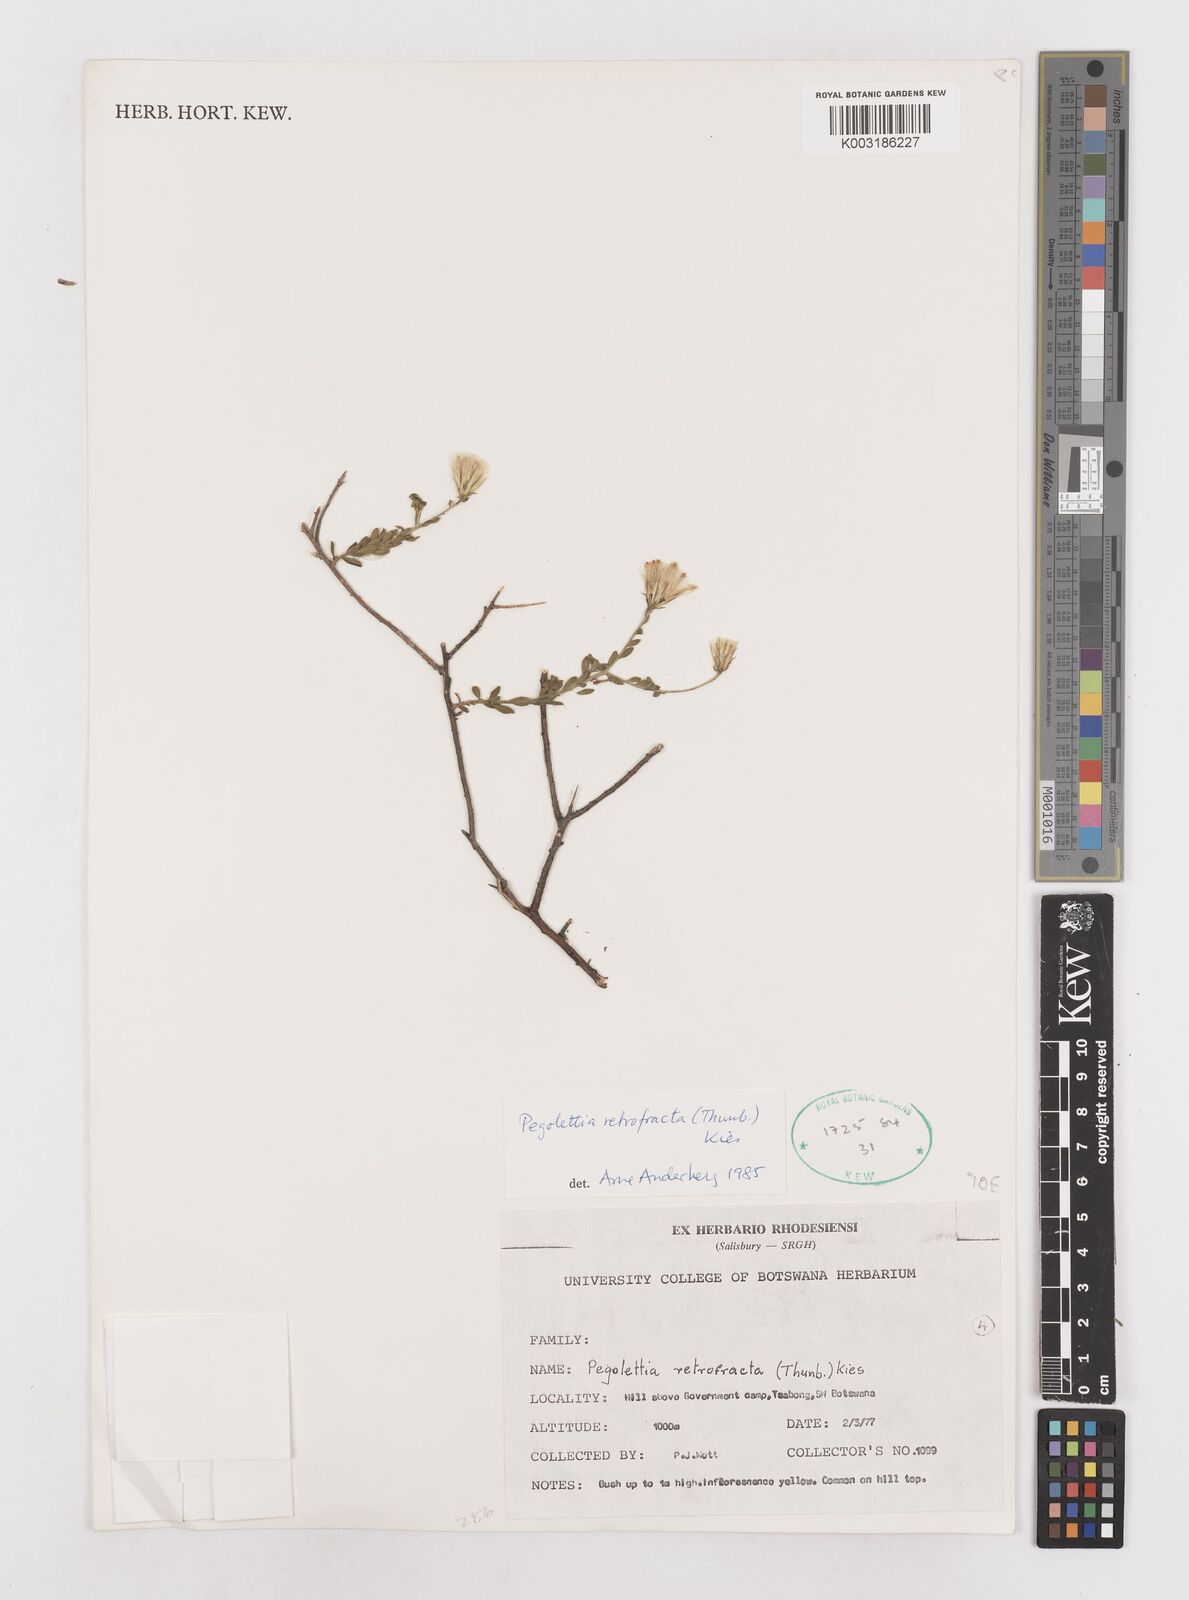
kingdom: Plantae
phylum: Tracheophyta
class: Magnoliopsida
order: Asterales
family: Asteraceae
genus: Pegolettia
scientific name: Pegolettia senegalensis
